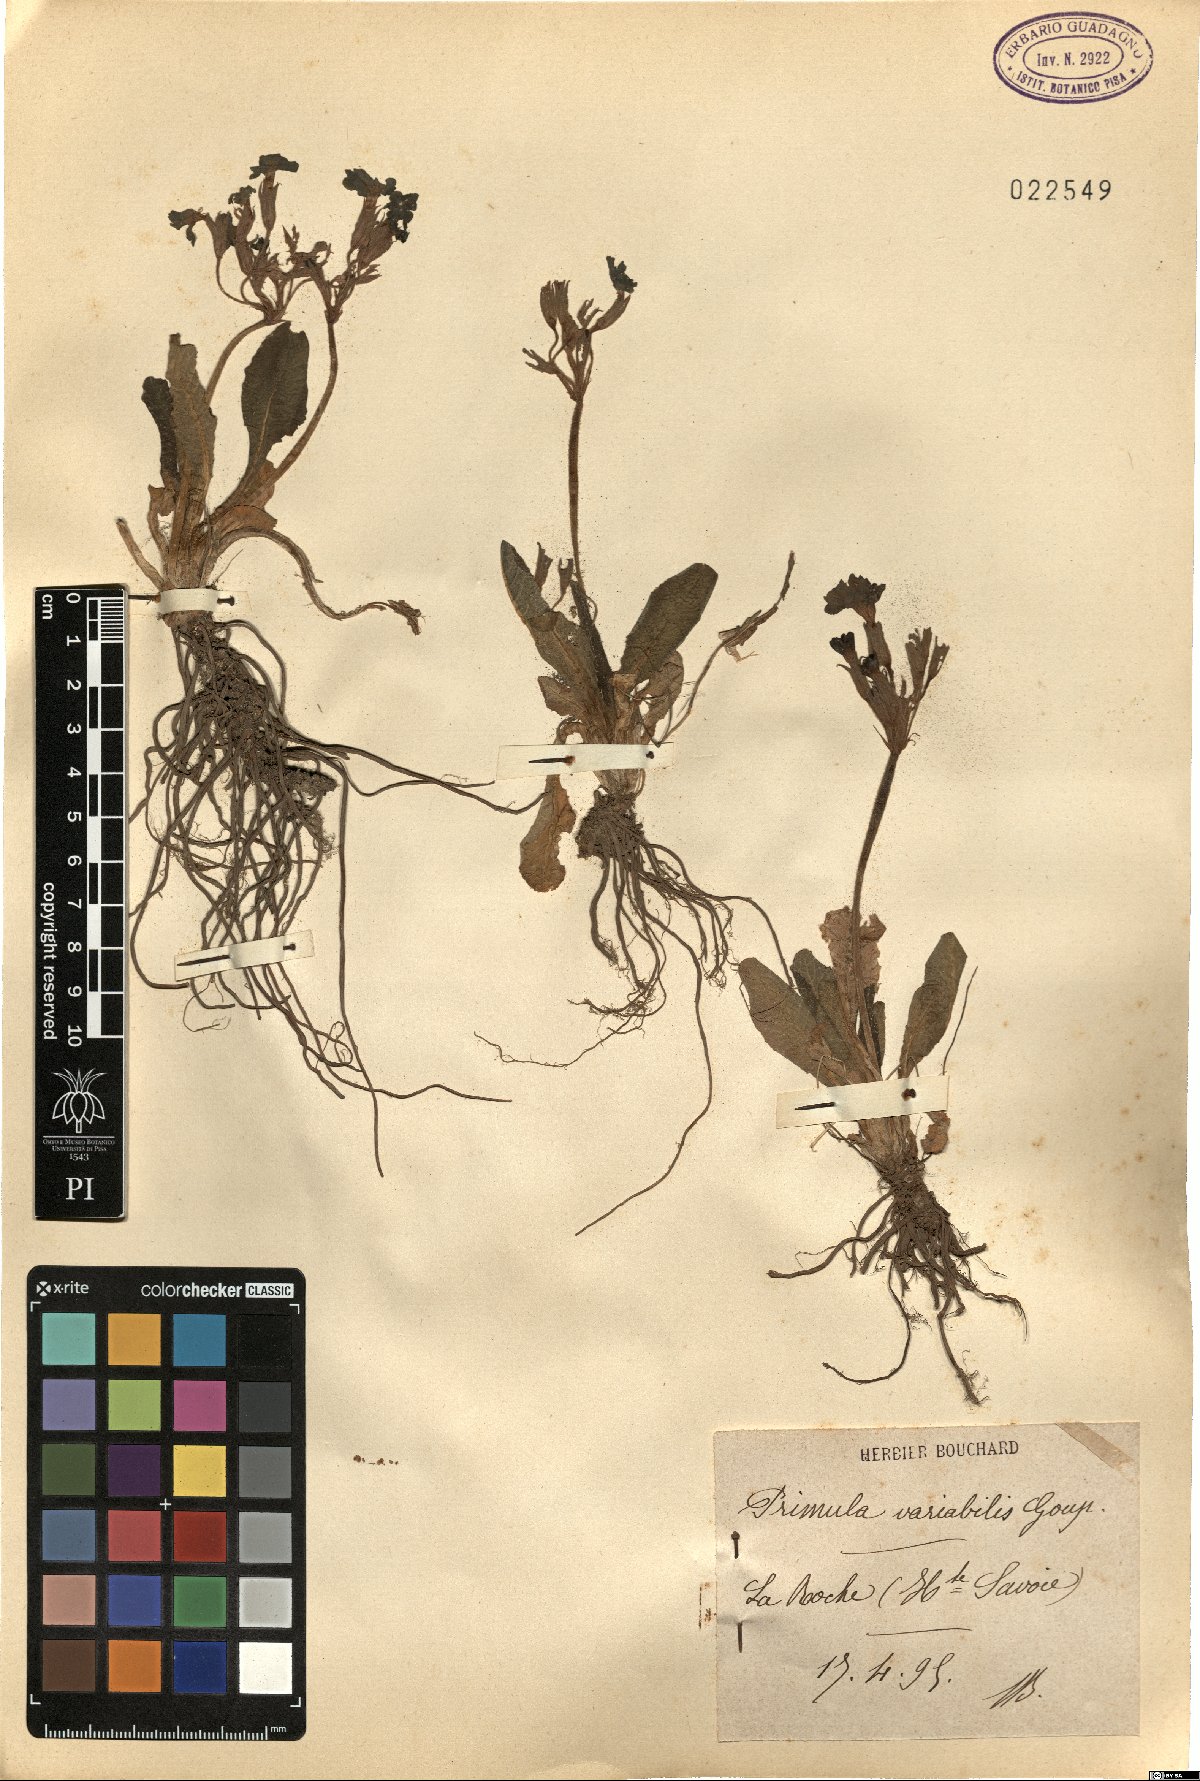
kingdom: Plantae
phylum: Tracheophyta
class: Magnoliopsida
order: Ericales
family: Primulaceae
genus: Primula
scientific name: Primula polyantha
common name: False oxlip
